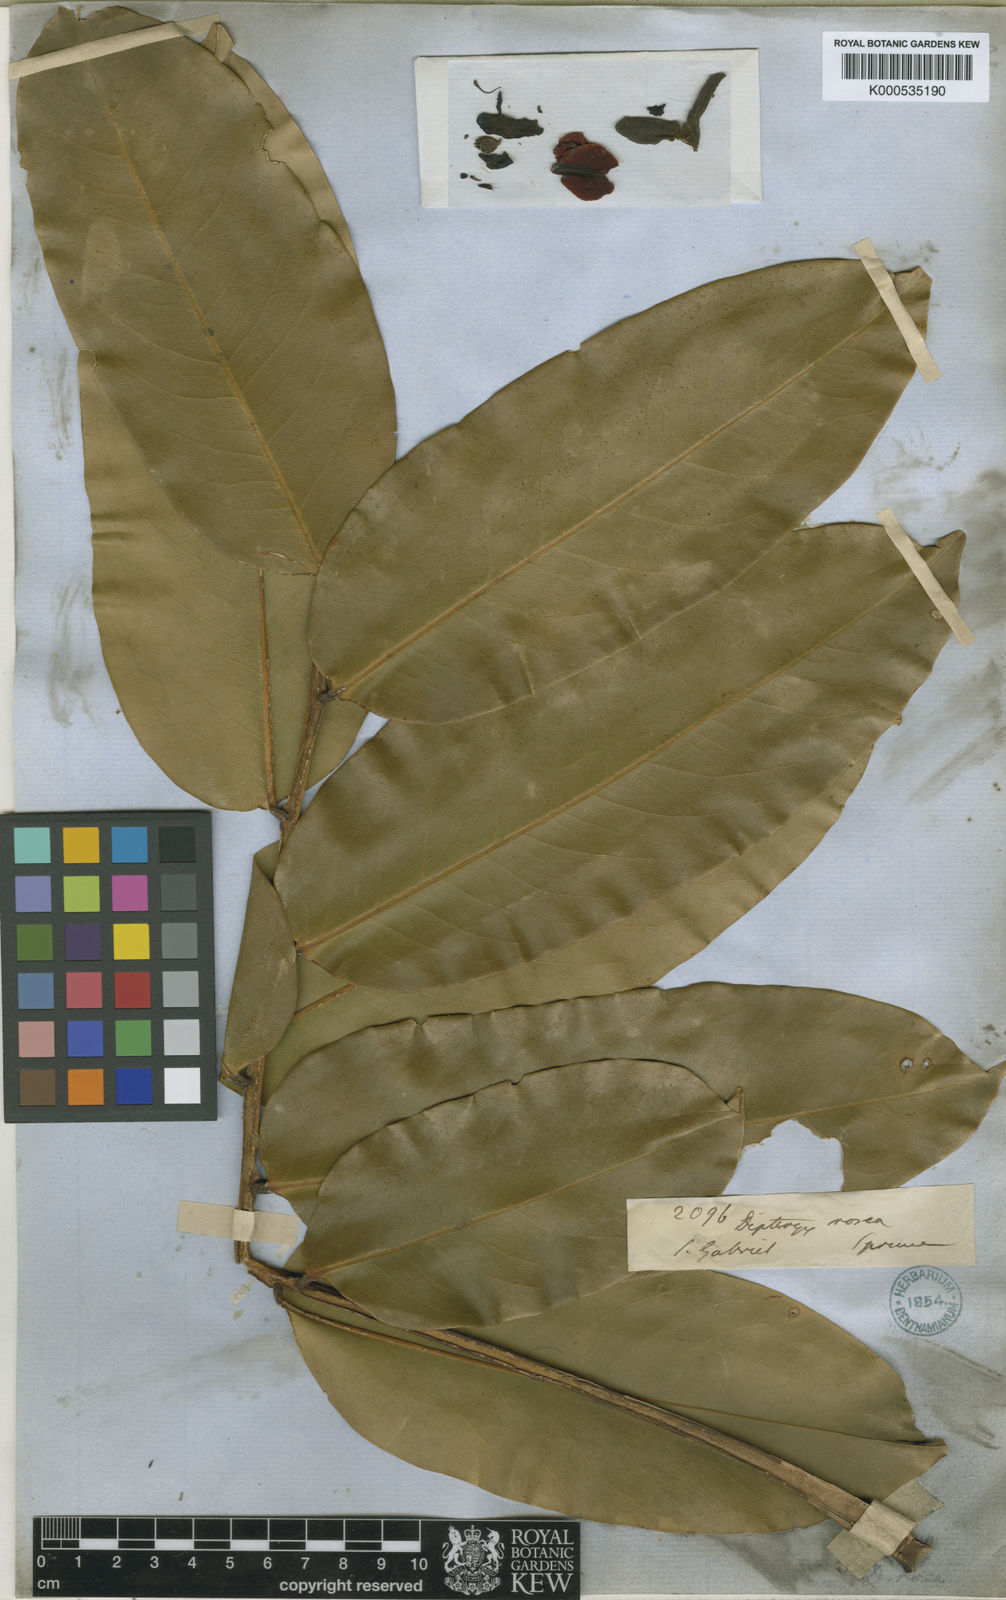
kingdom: Plantae
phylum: Tracheophyta
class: Magnoliopsida
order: Fabales
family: Fabaceae
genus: Dipteryx
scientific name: Dipteryx rosea
